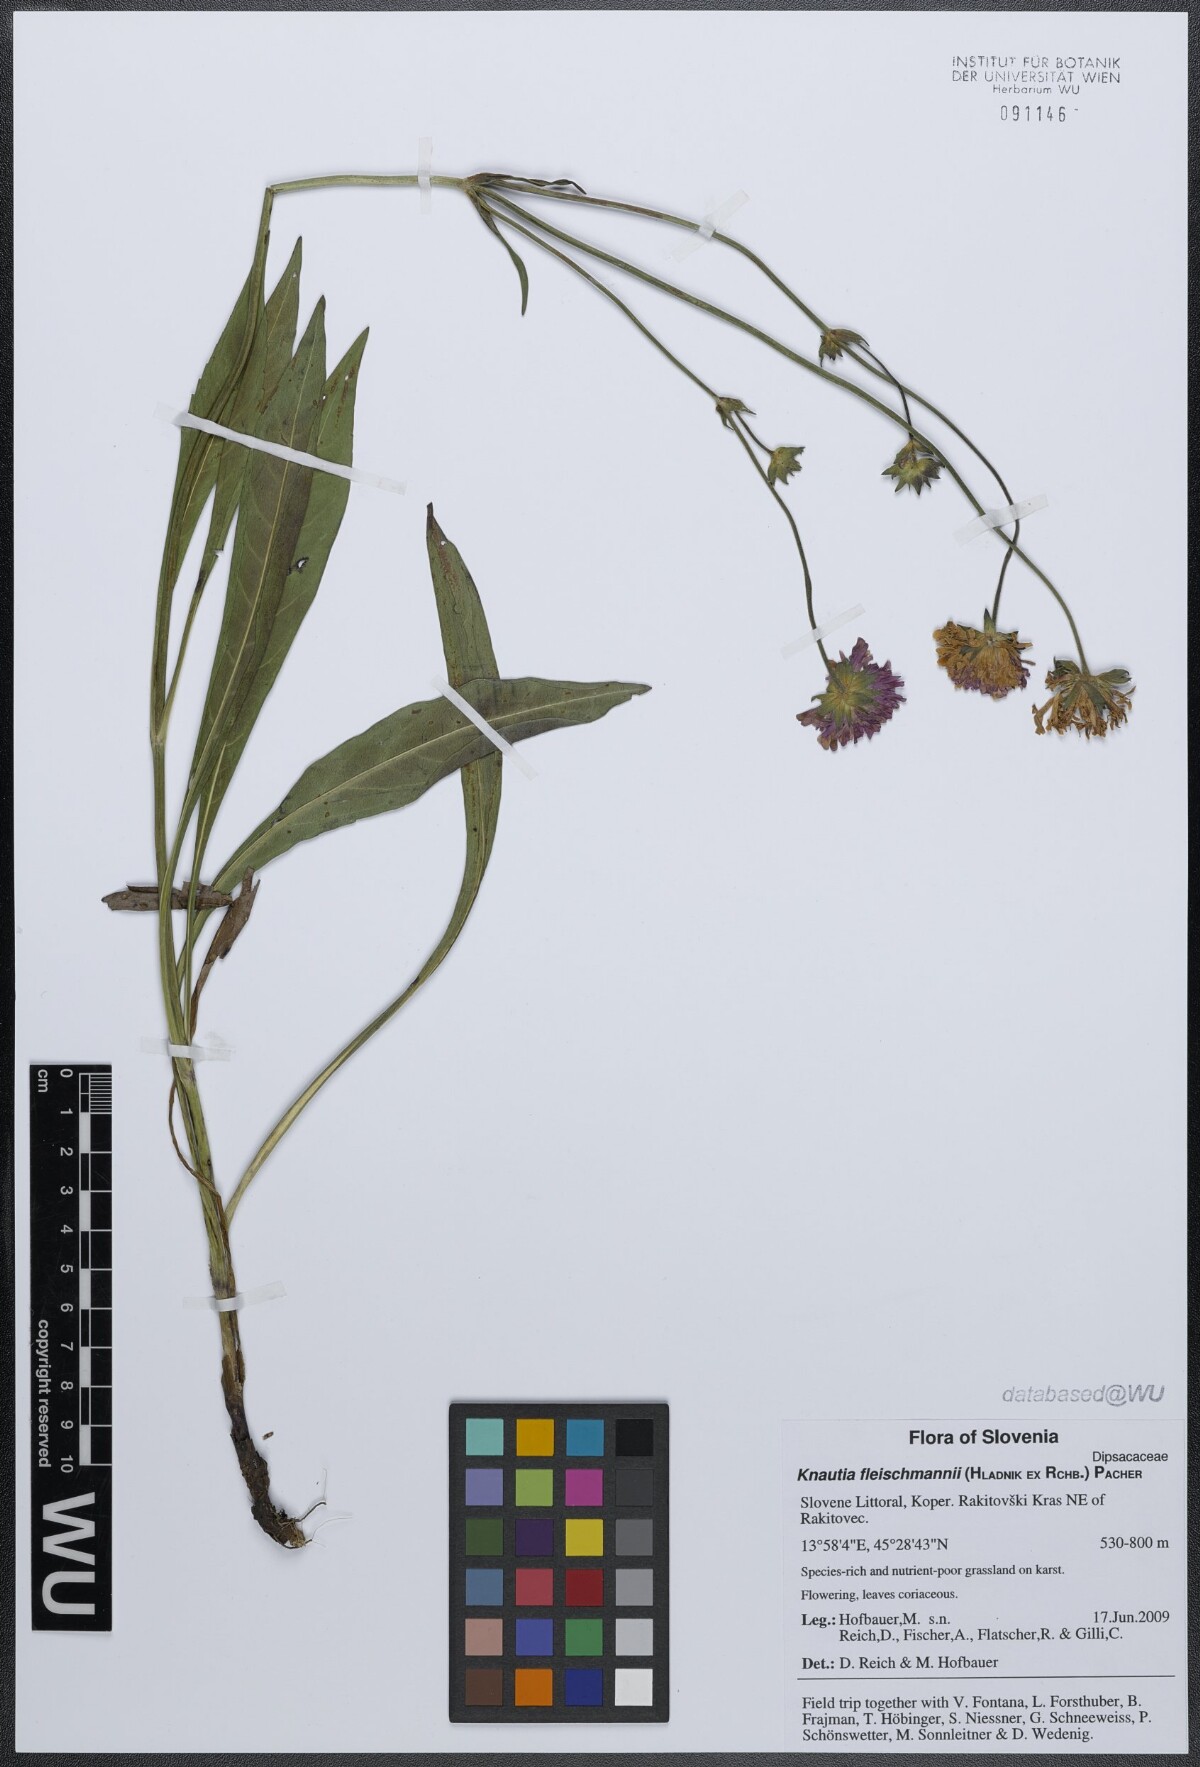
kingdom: Plantae
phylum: Tracheophyta
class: Magnoliopsida
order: Dipsacales
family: Caprifoliaceae
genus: Knautia
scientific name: Knautia fleischmannii
